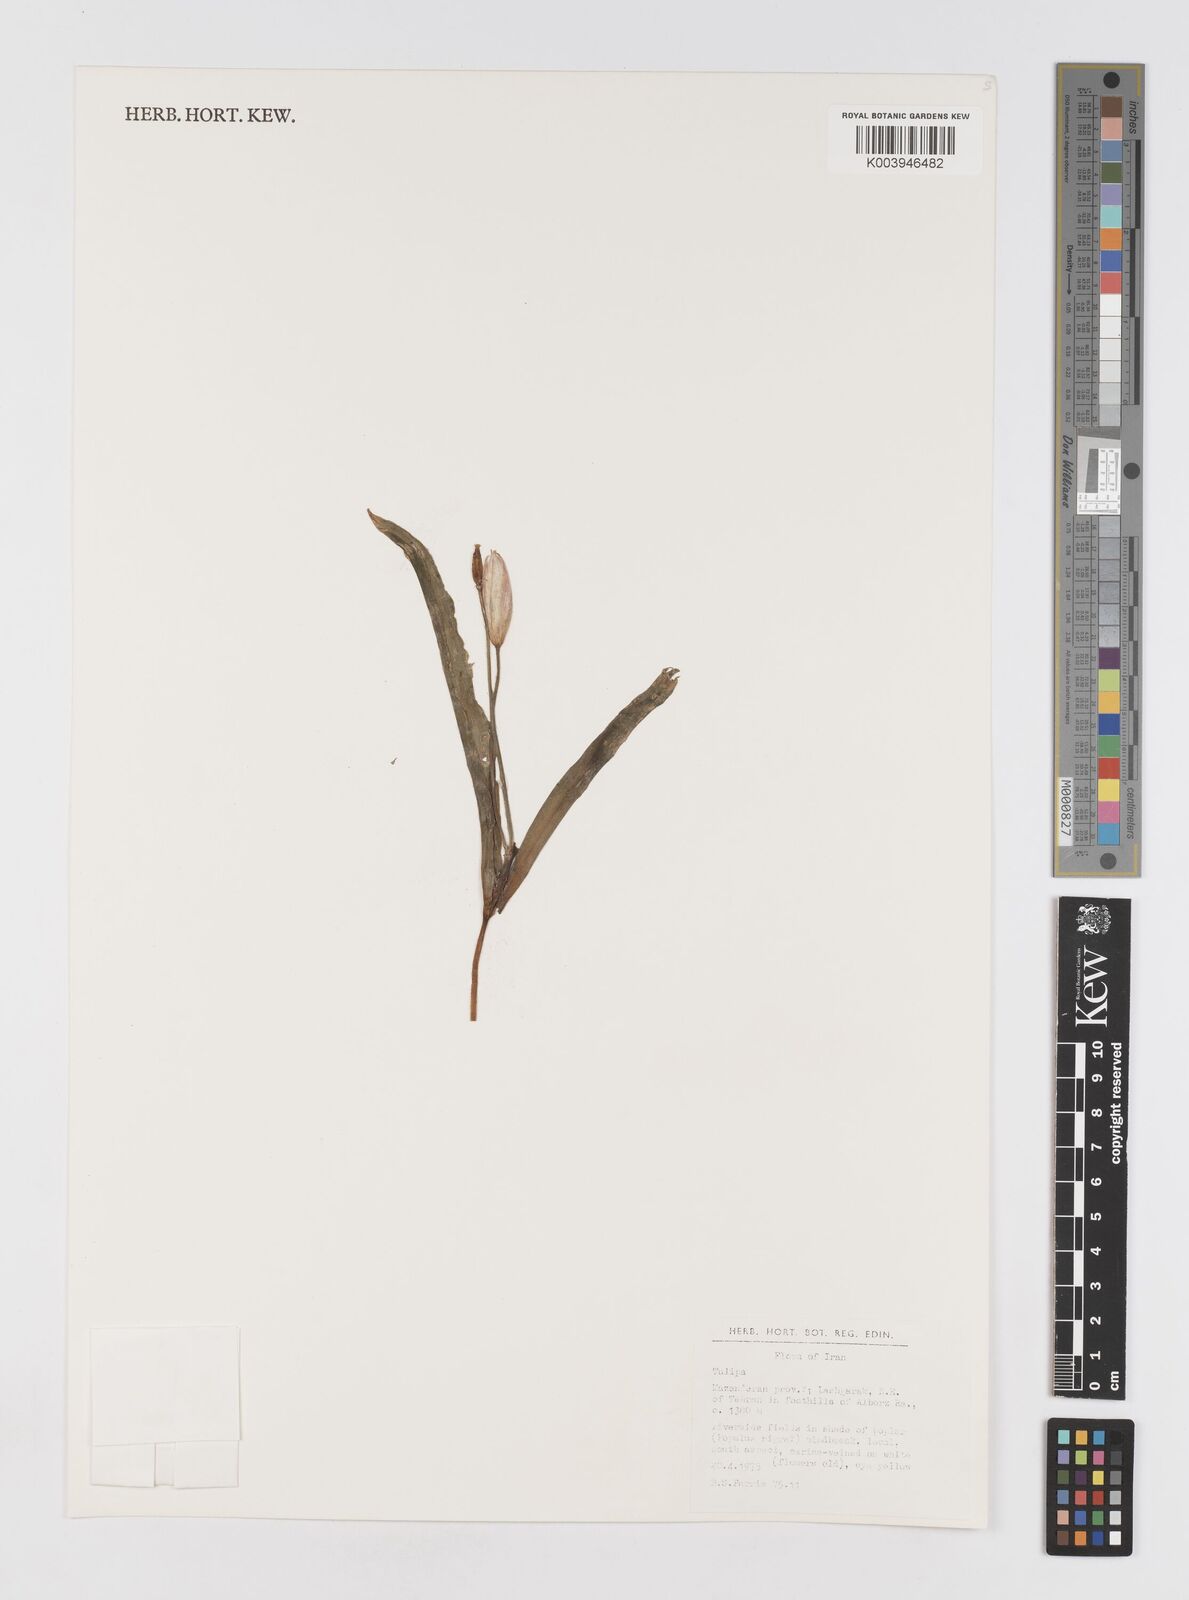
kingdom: Plantae
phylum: Tracheophyta
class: Liliopsida
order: Liliales
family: Liliaceae
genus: Tulipa
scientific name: Tulipa
